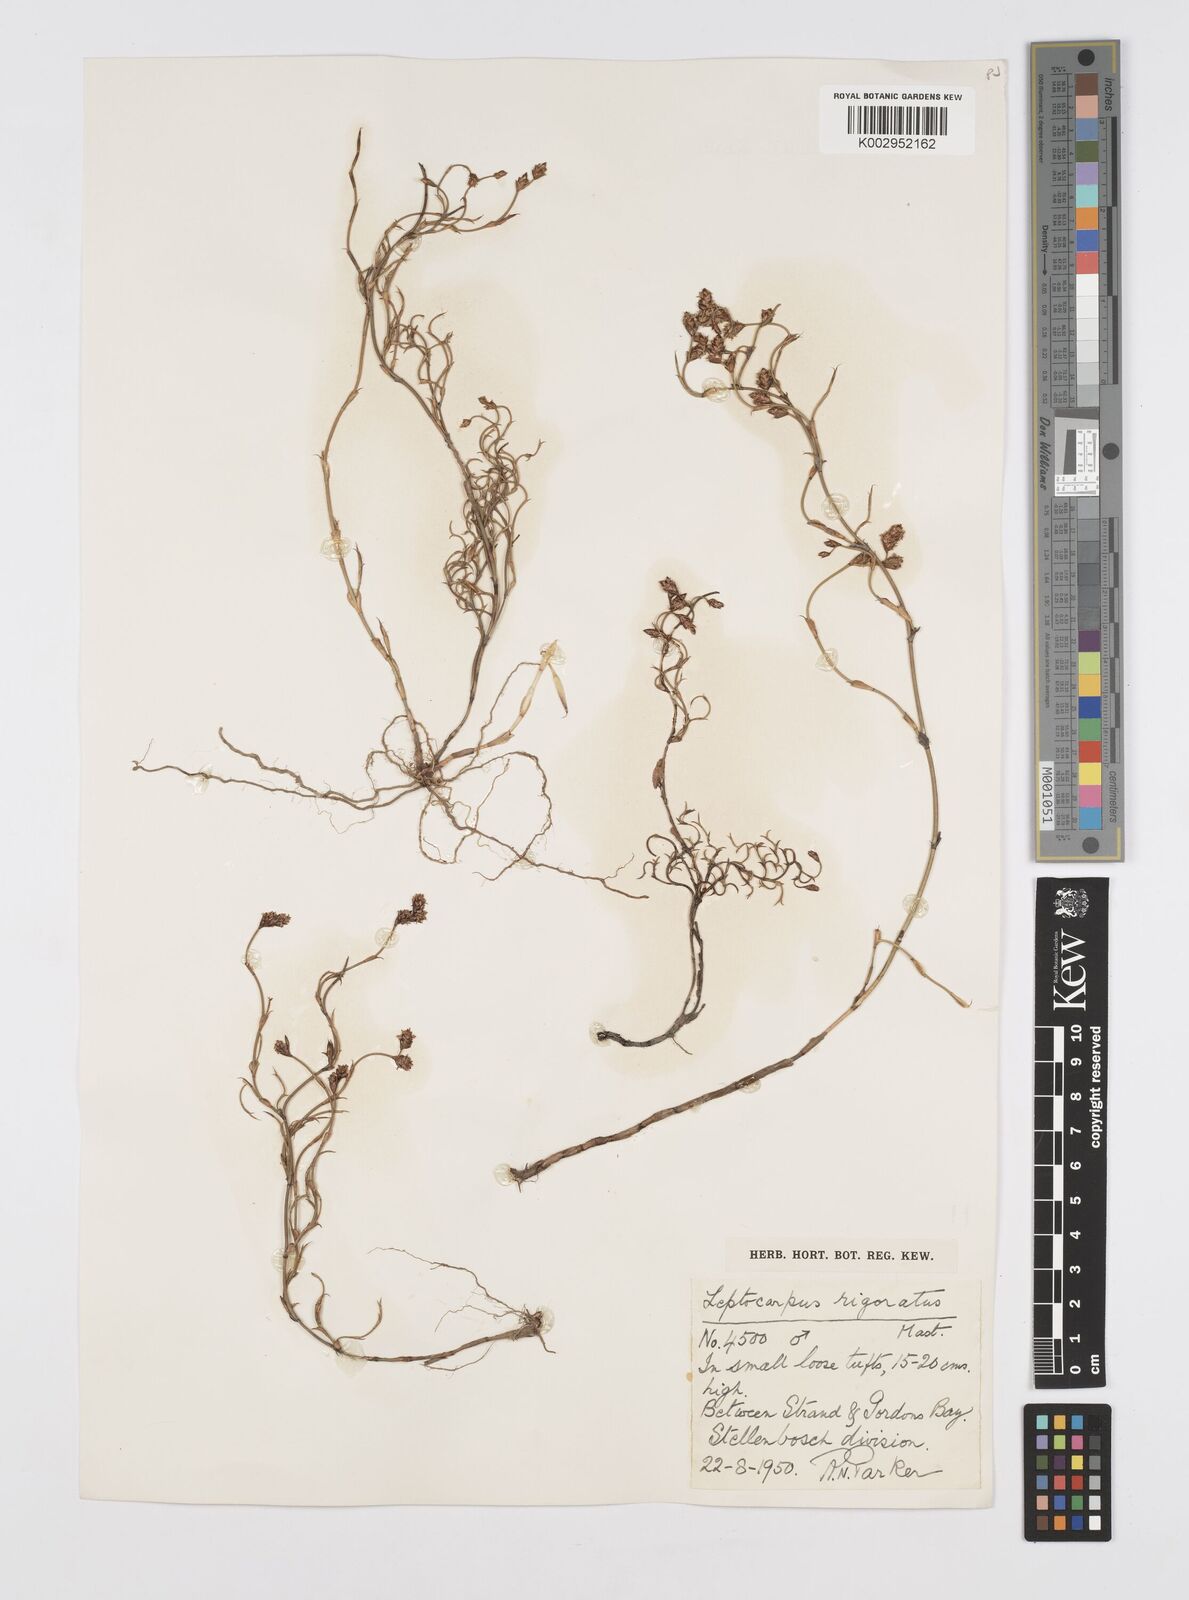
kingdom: Plantae
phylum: Tracheophyta
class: Liliopsida
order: Poales
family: Restionaceae
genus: Restio
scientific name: Restio rigoratus
